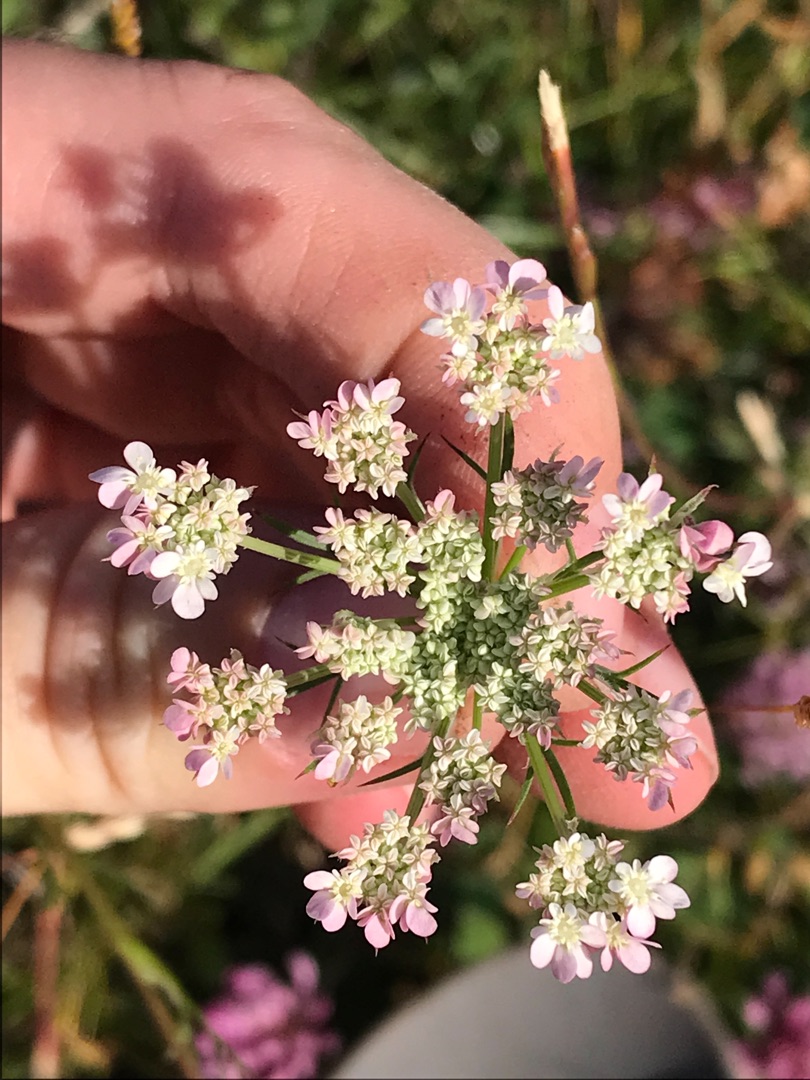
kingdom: Plantae
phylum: Tracheophyta
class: Magnoliopsida
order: Apiales
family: Apiaceae
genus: Daucus
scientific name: Daucus carota
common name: Vild gulerod
